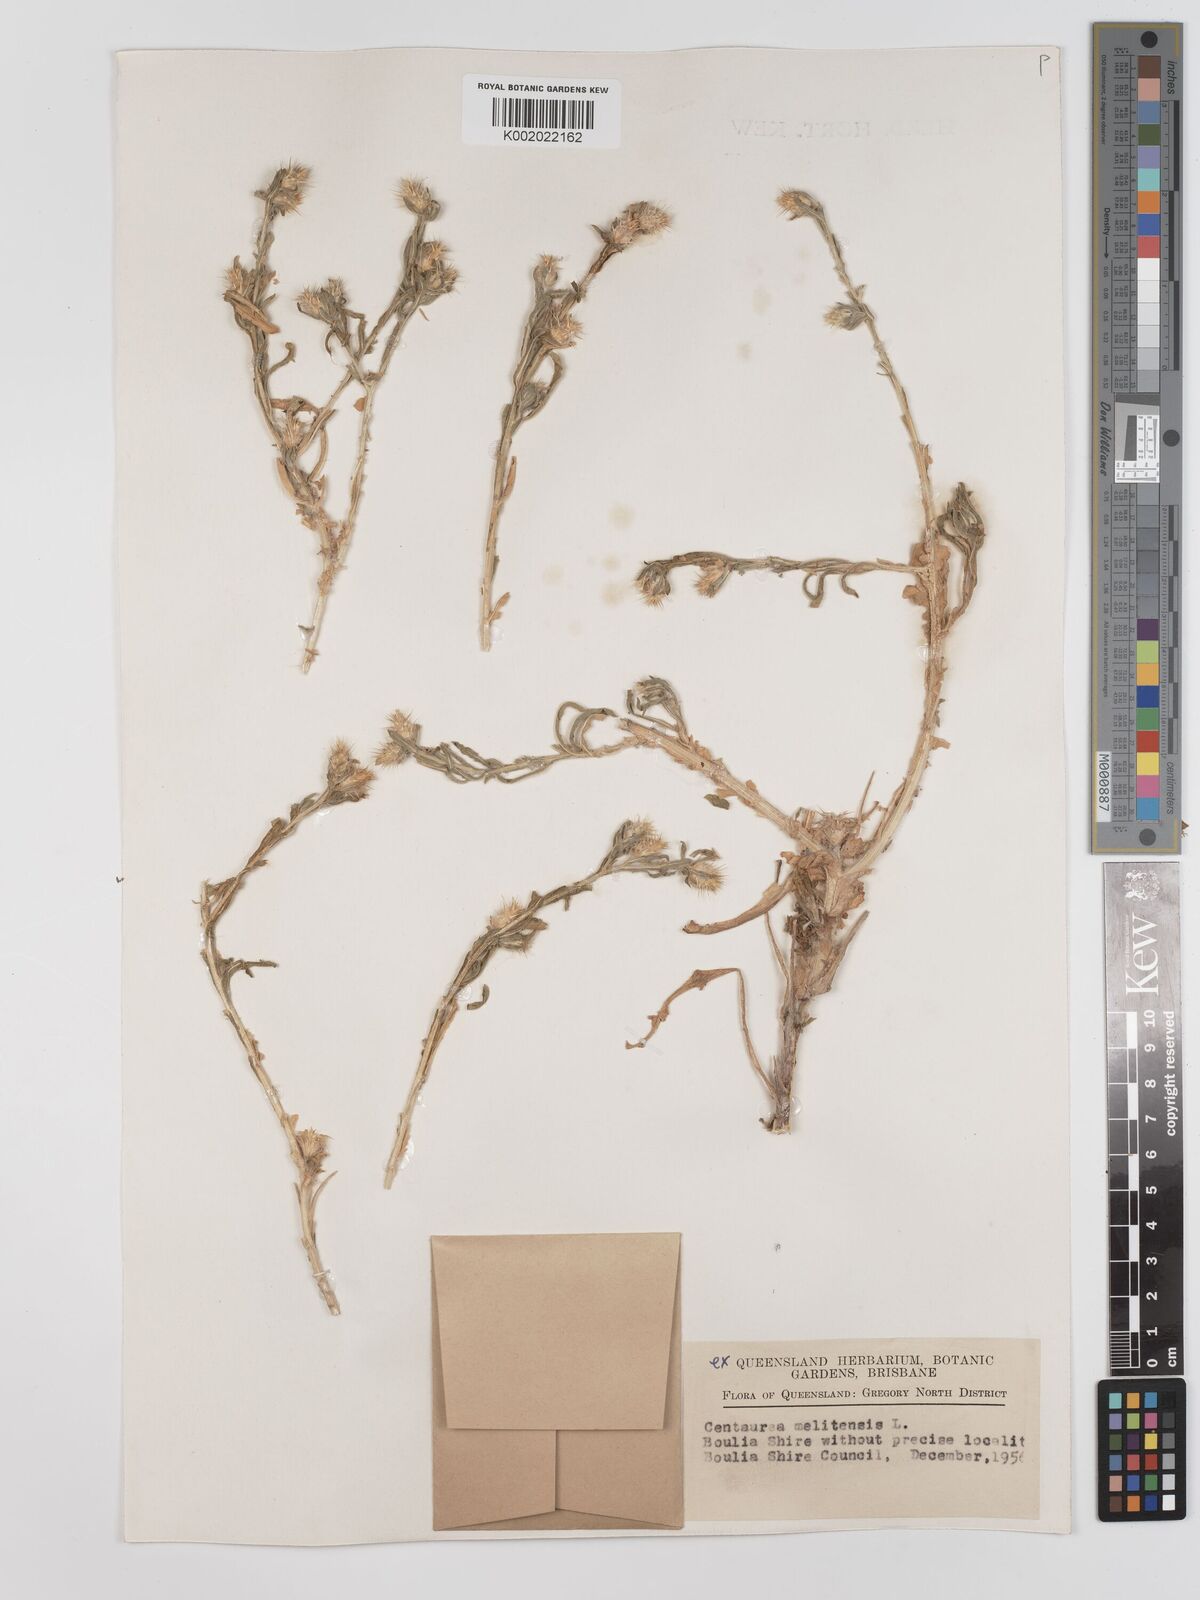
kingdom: Plantae
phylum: Tracheophyta
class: Magnoliopsida
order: Asterales
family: Asteraceae
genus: Centaurea
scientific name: Centaurea melitensis
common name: Maltese star-thistle
